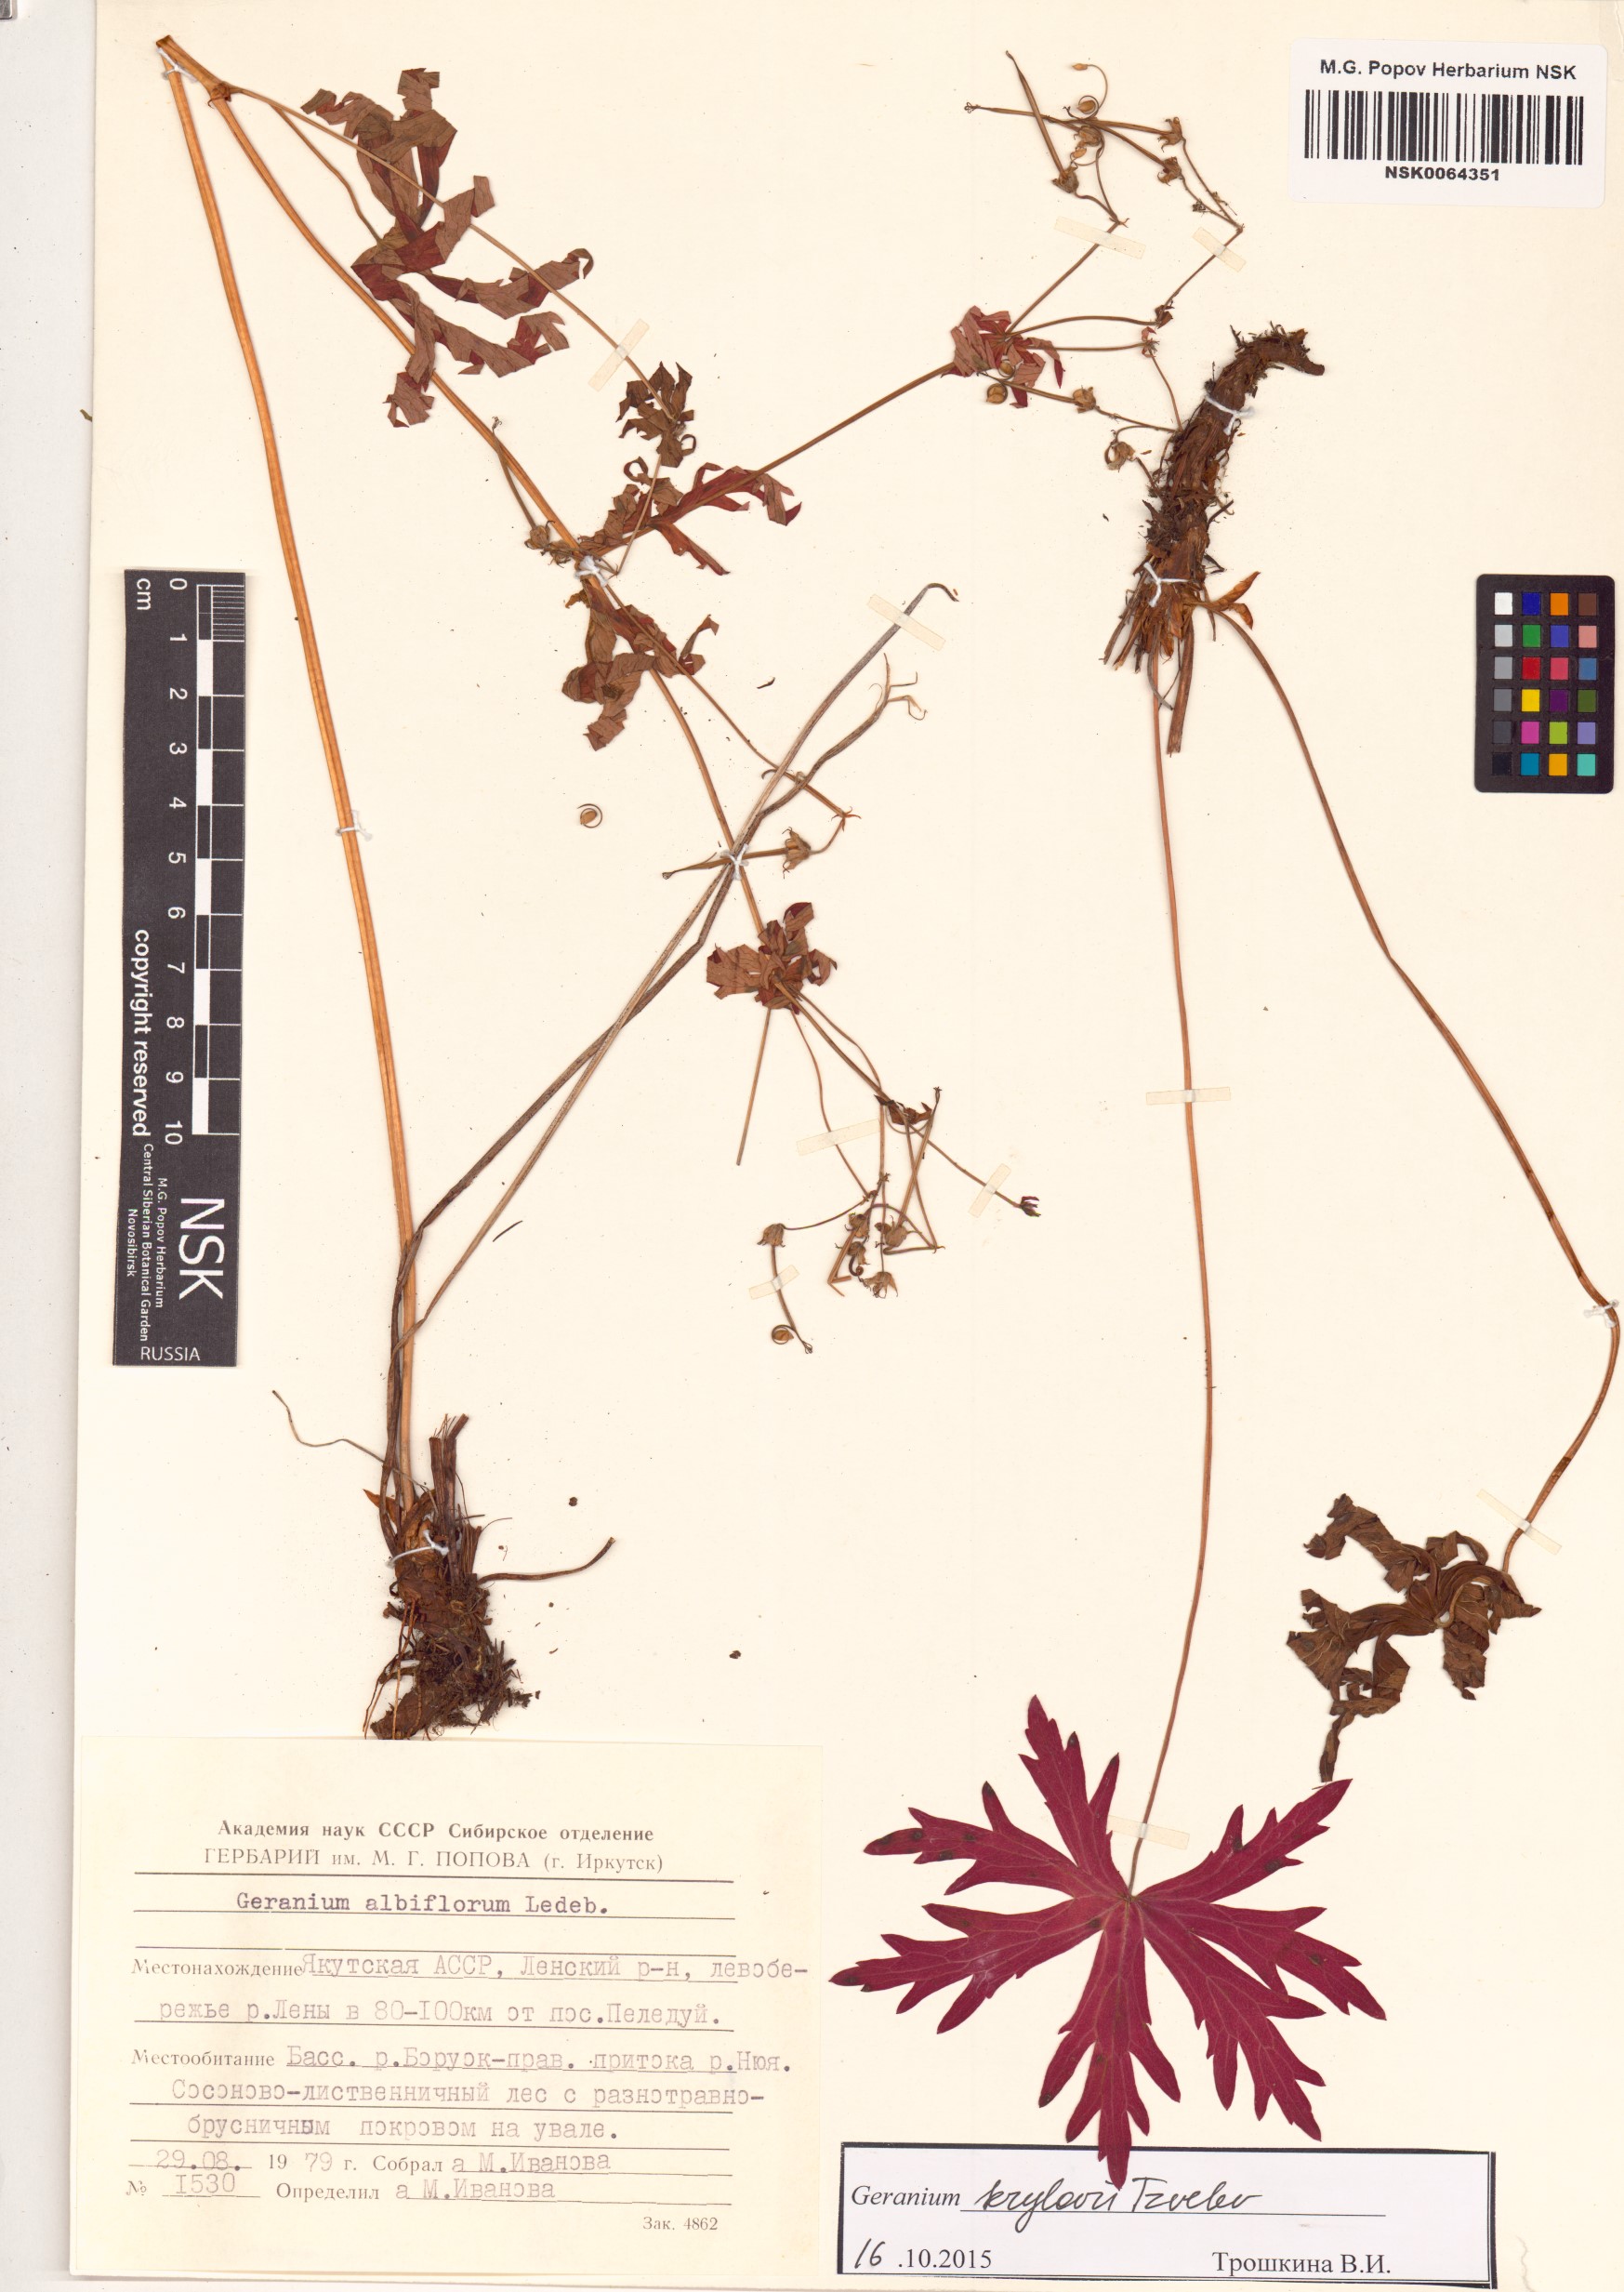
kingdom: Plantae
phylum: Tracheophyta
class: Magnoliopsida
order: Geraniales
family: Geraniaceae
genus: Geranium
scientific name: Geranium sylvaticum
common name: Wood crane's-bill
